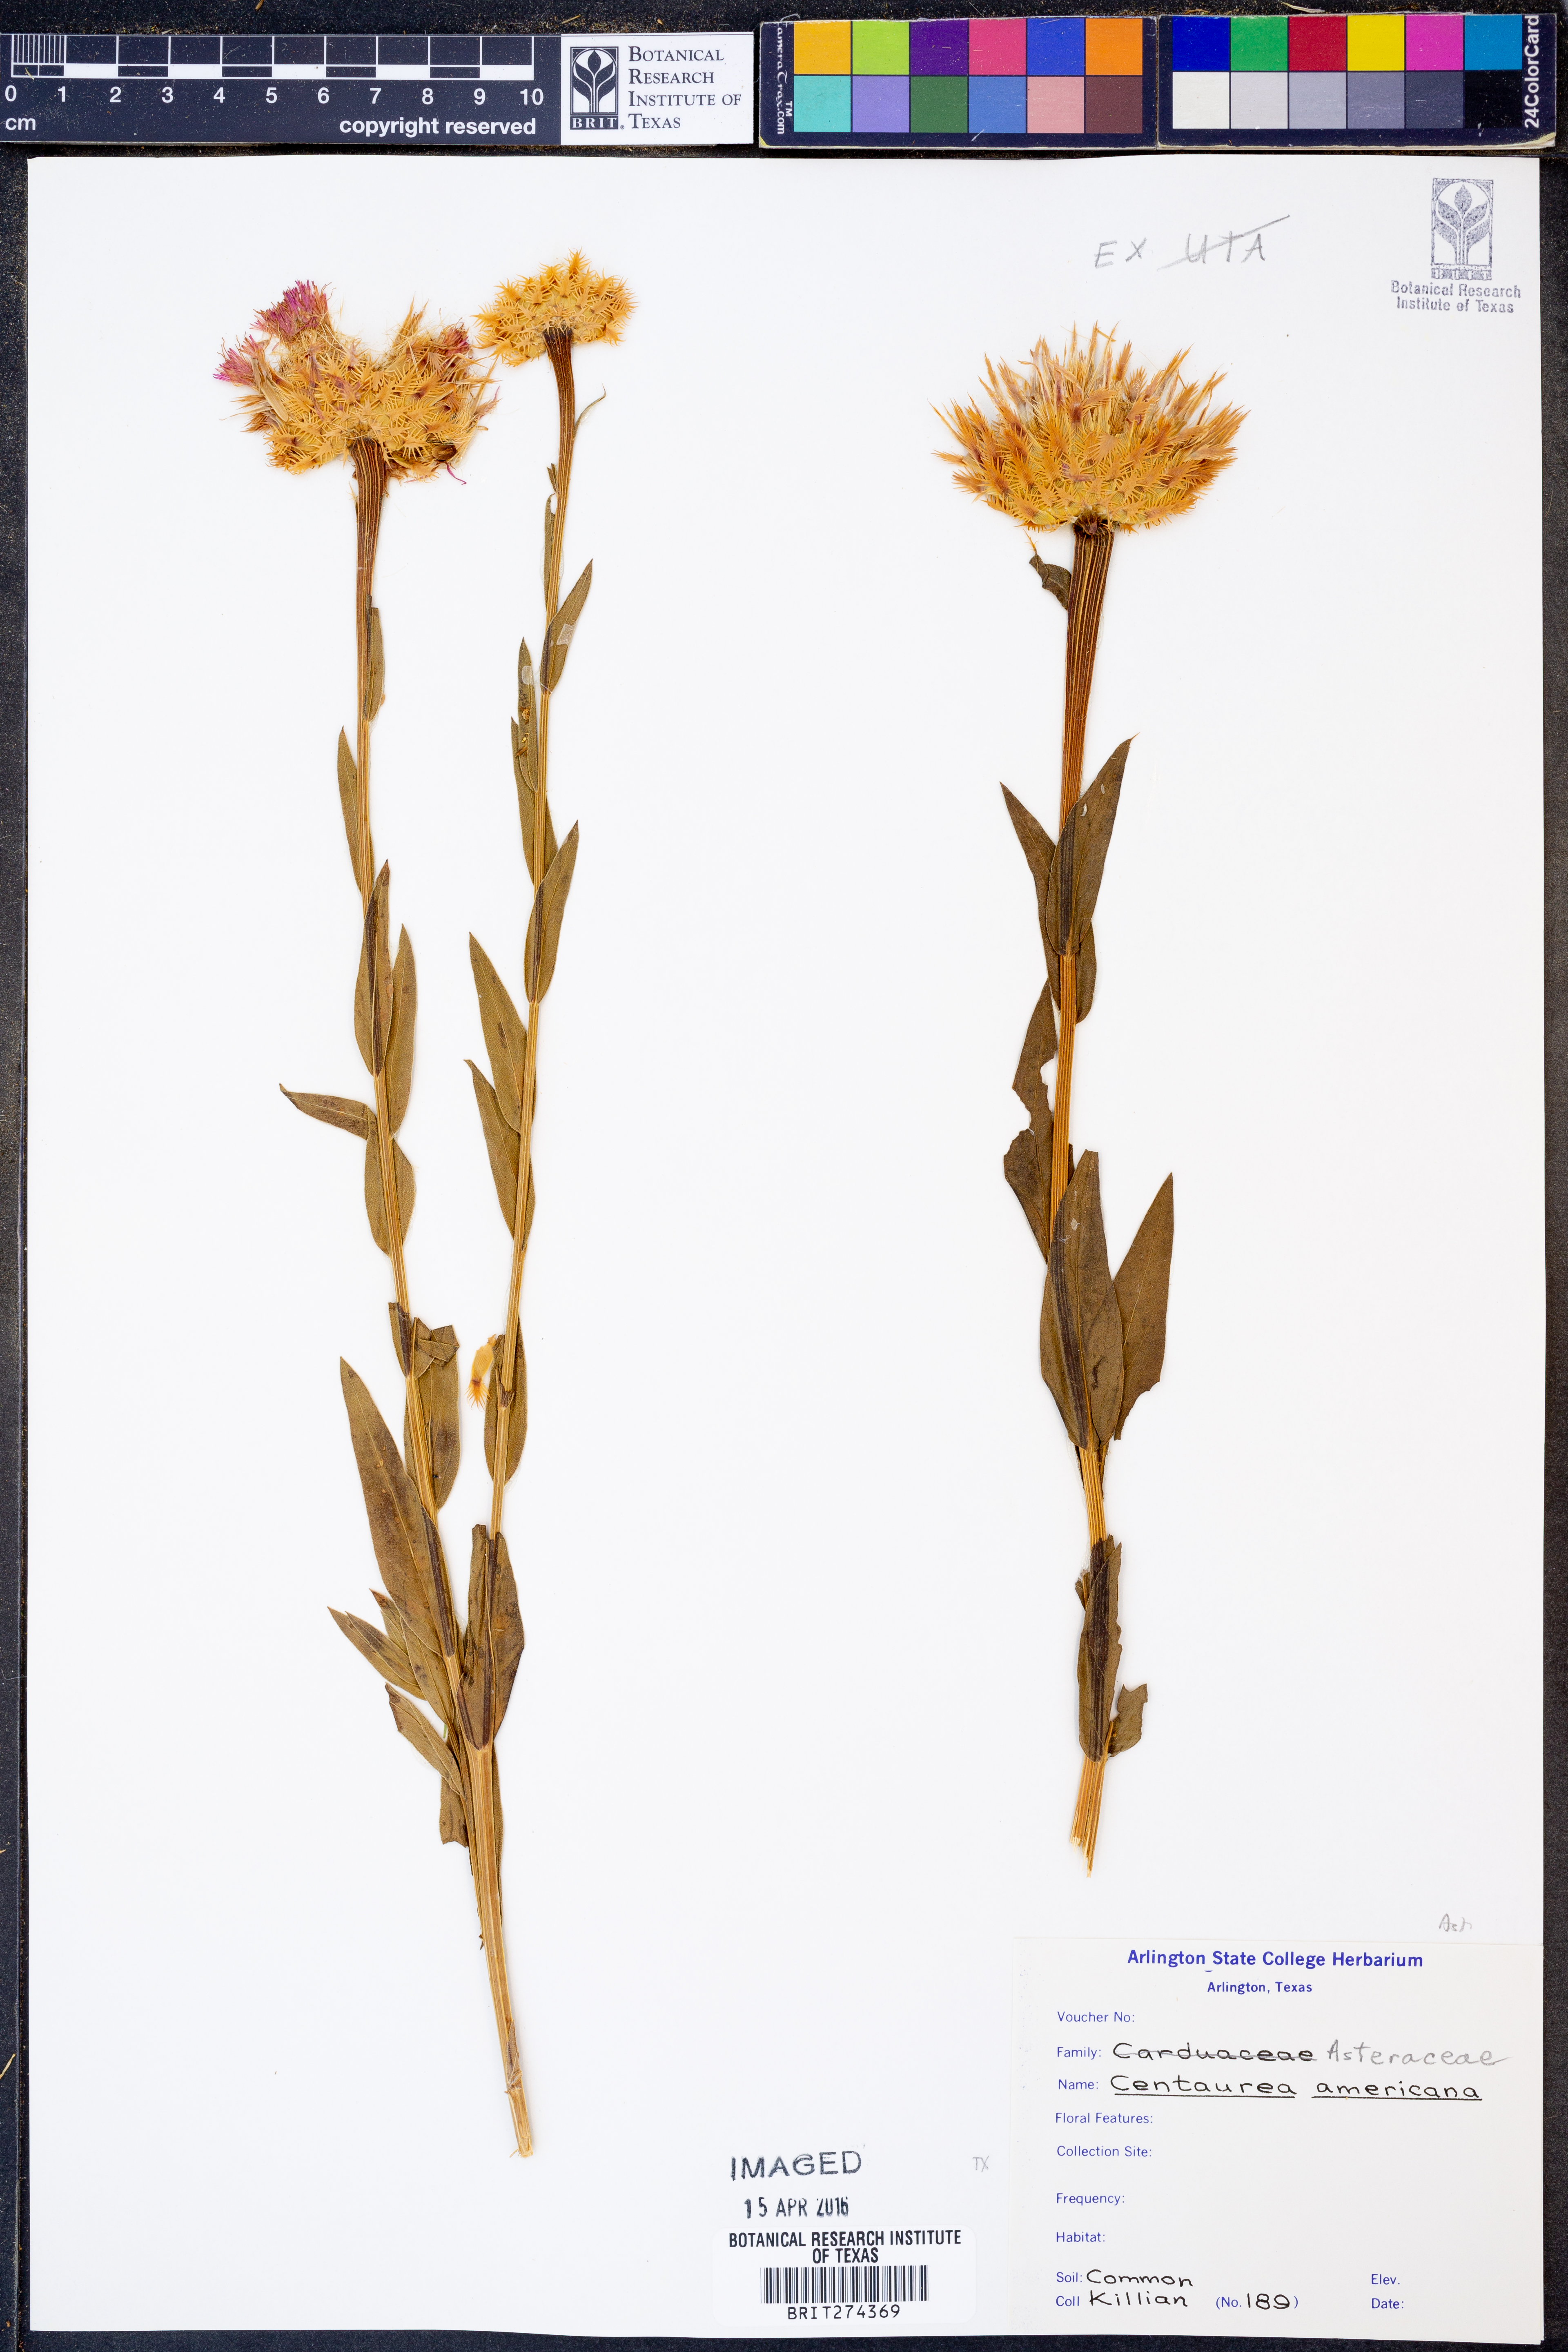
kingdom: Plantae
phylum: Tracheophyta
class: Magnoliopsida
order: Asterales
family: Asteraceae
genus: Plectocephalus
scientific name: Plectocephalus americanus
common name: American basket-flower
